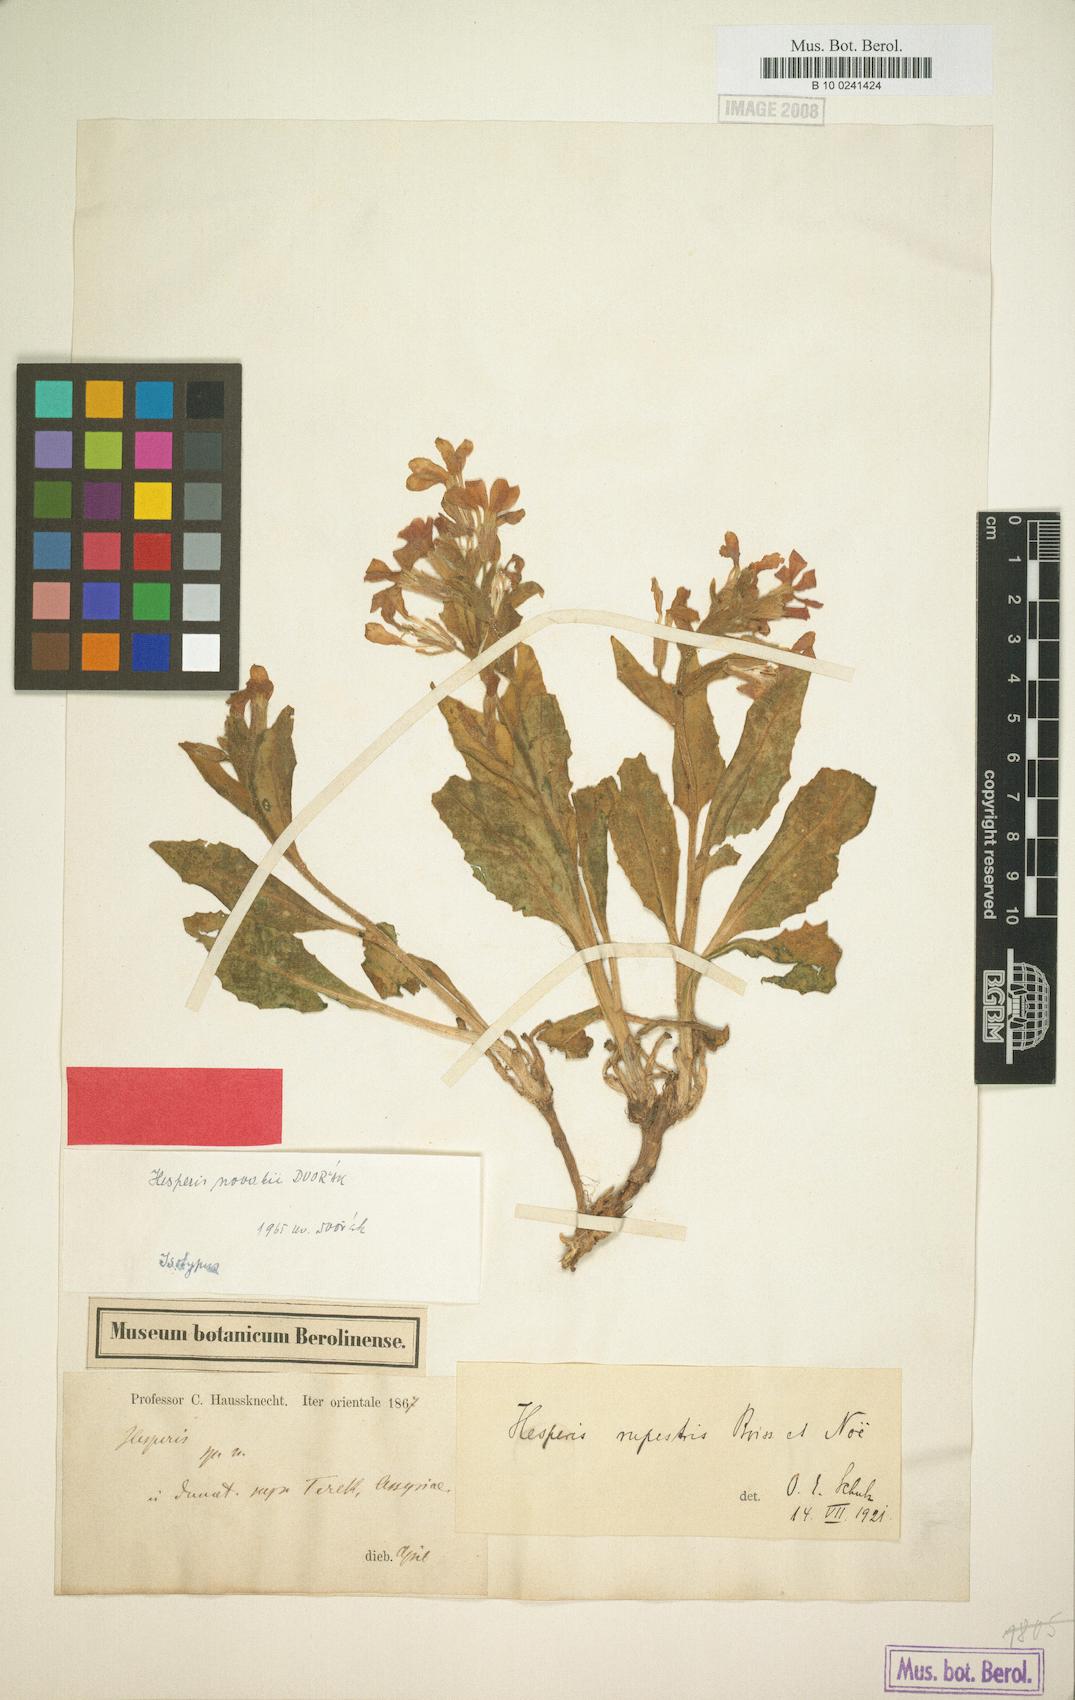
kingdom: Plantae
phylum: Tracheophyta
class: Magnoliopsida
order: Brassicales
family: Brassicaceae
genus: Hesperis
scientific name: Hesperis novakii
